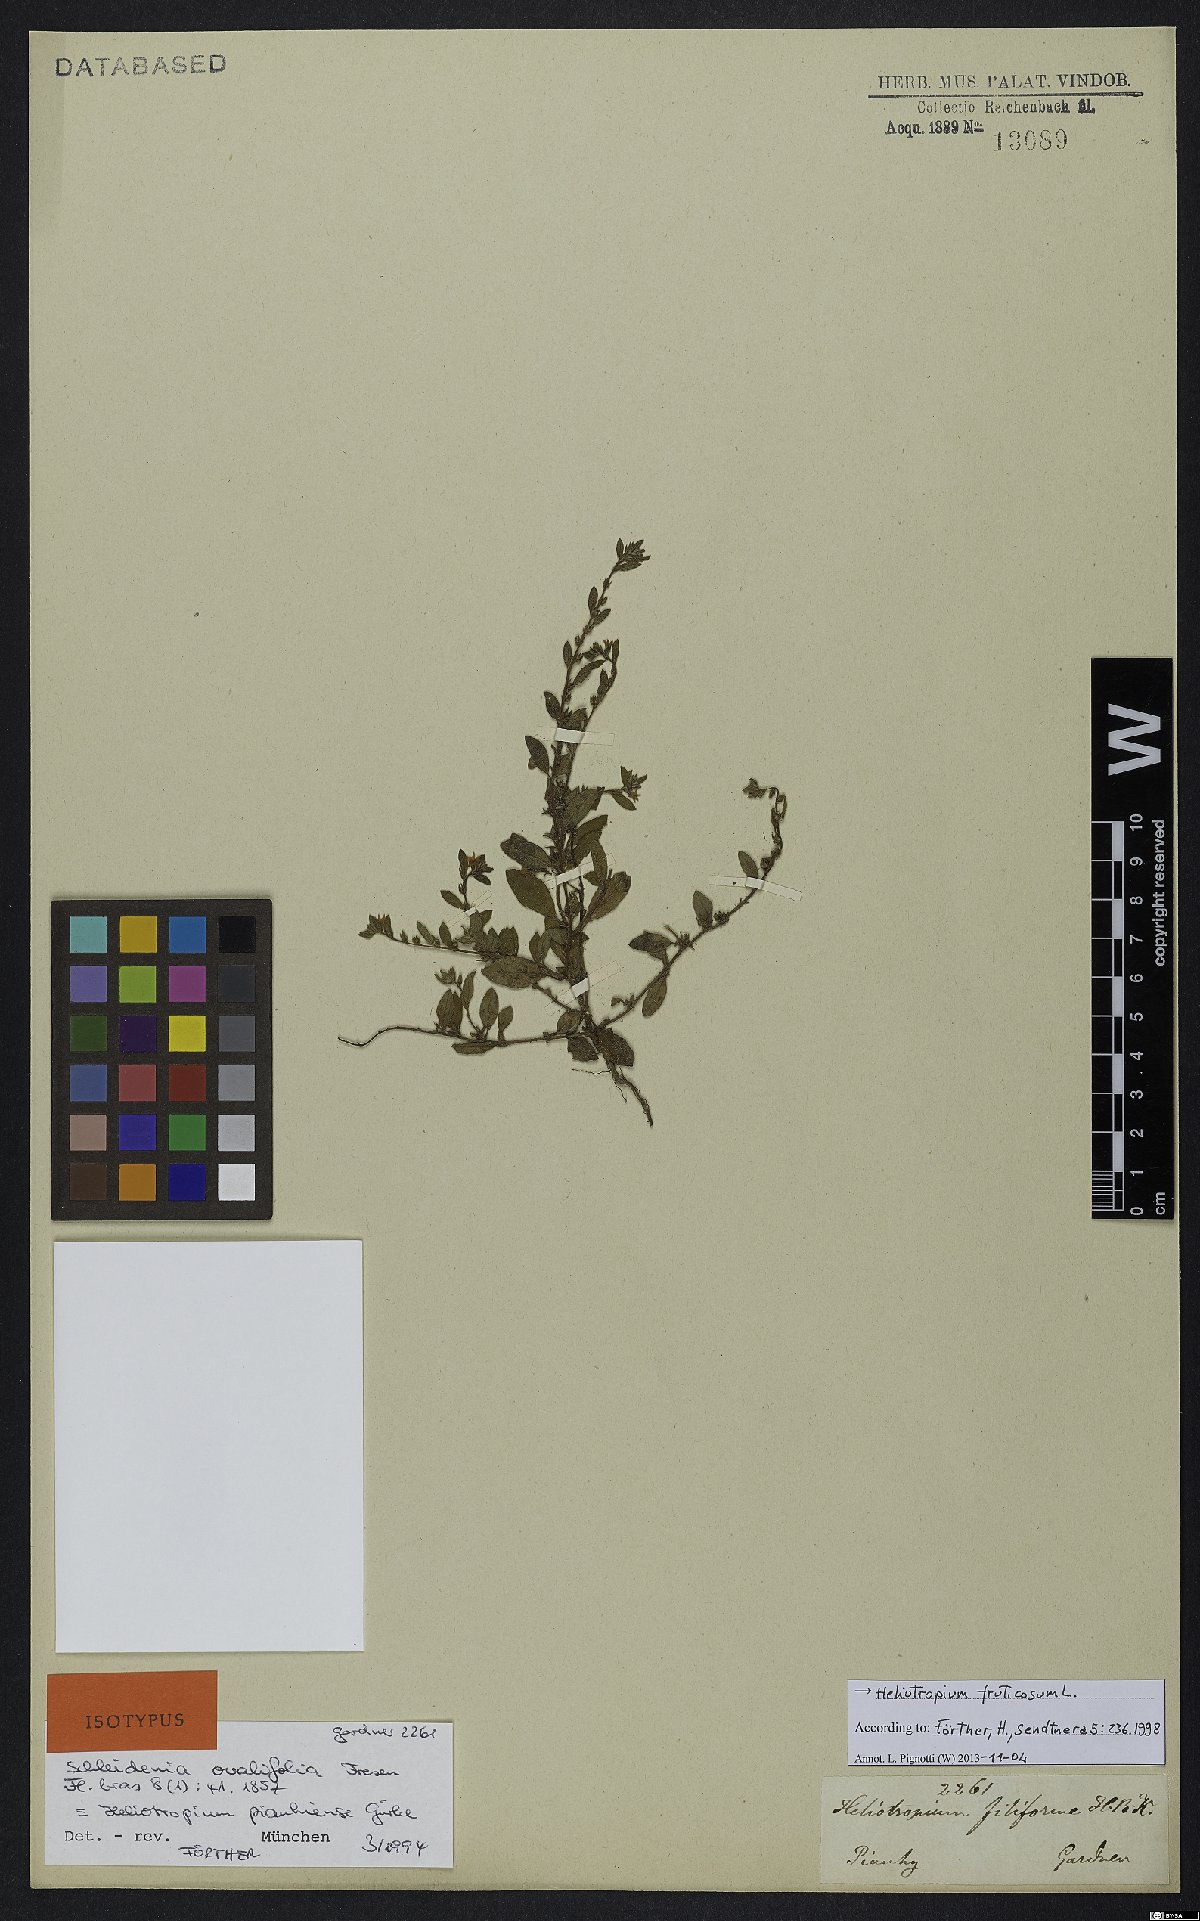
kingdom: Plantae
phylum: Tracheophyta
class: Magnoliopsida
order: Boraginales
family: Heliotropiaceae
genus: Euploca
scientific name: Euploca fruticosa
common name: Key west heliotrope
